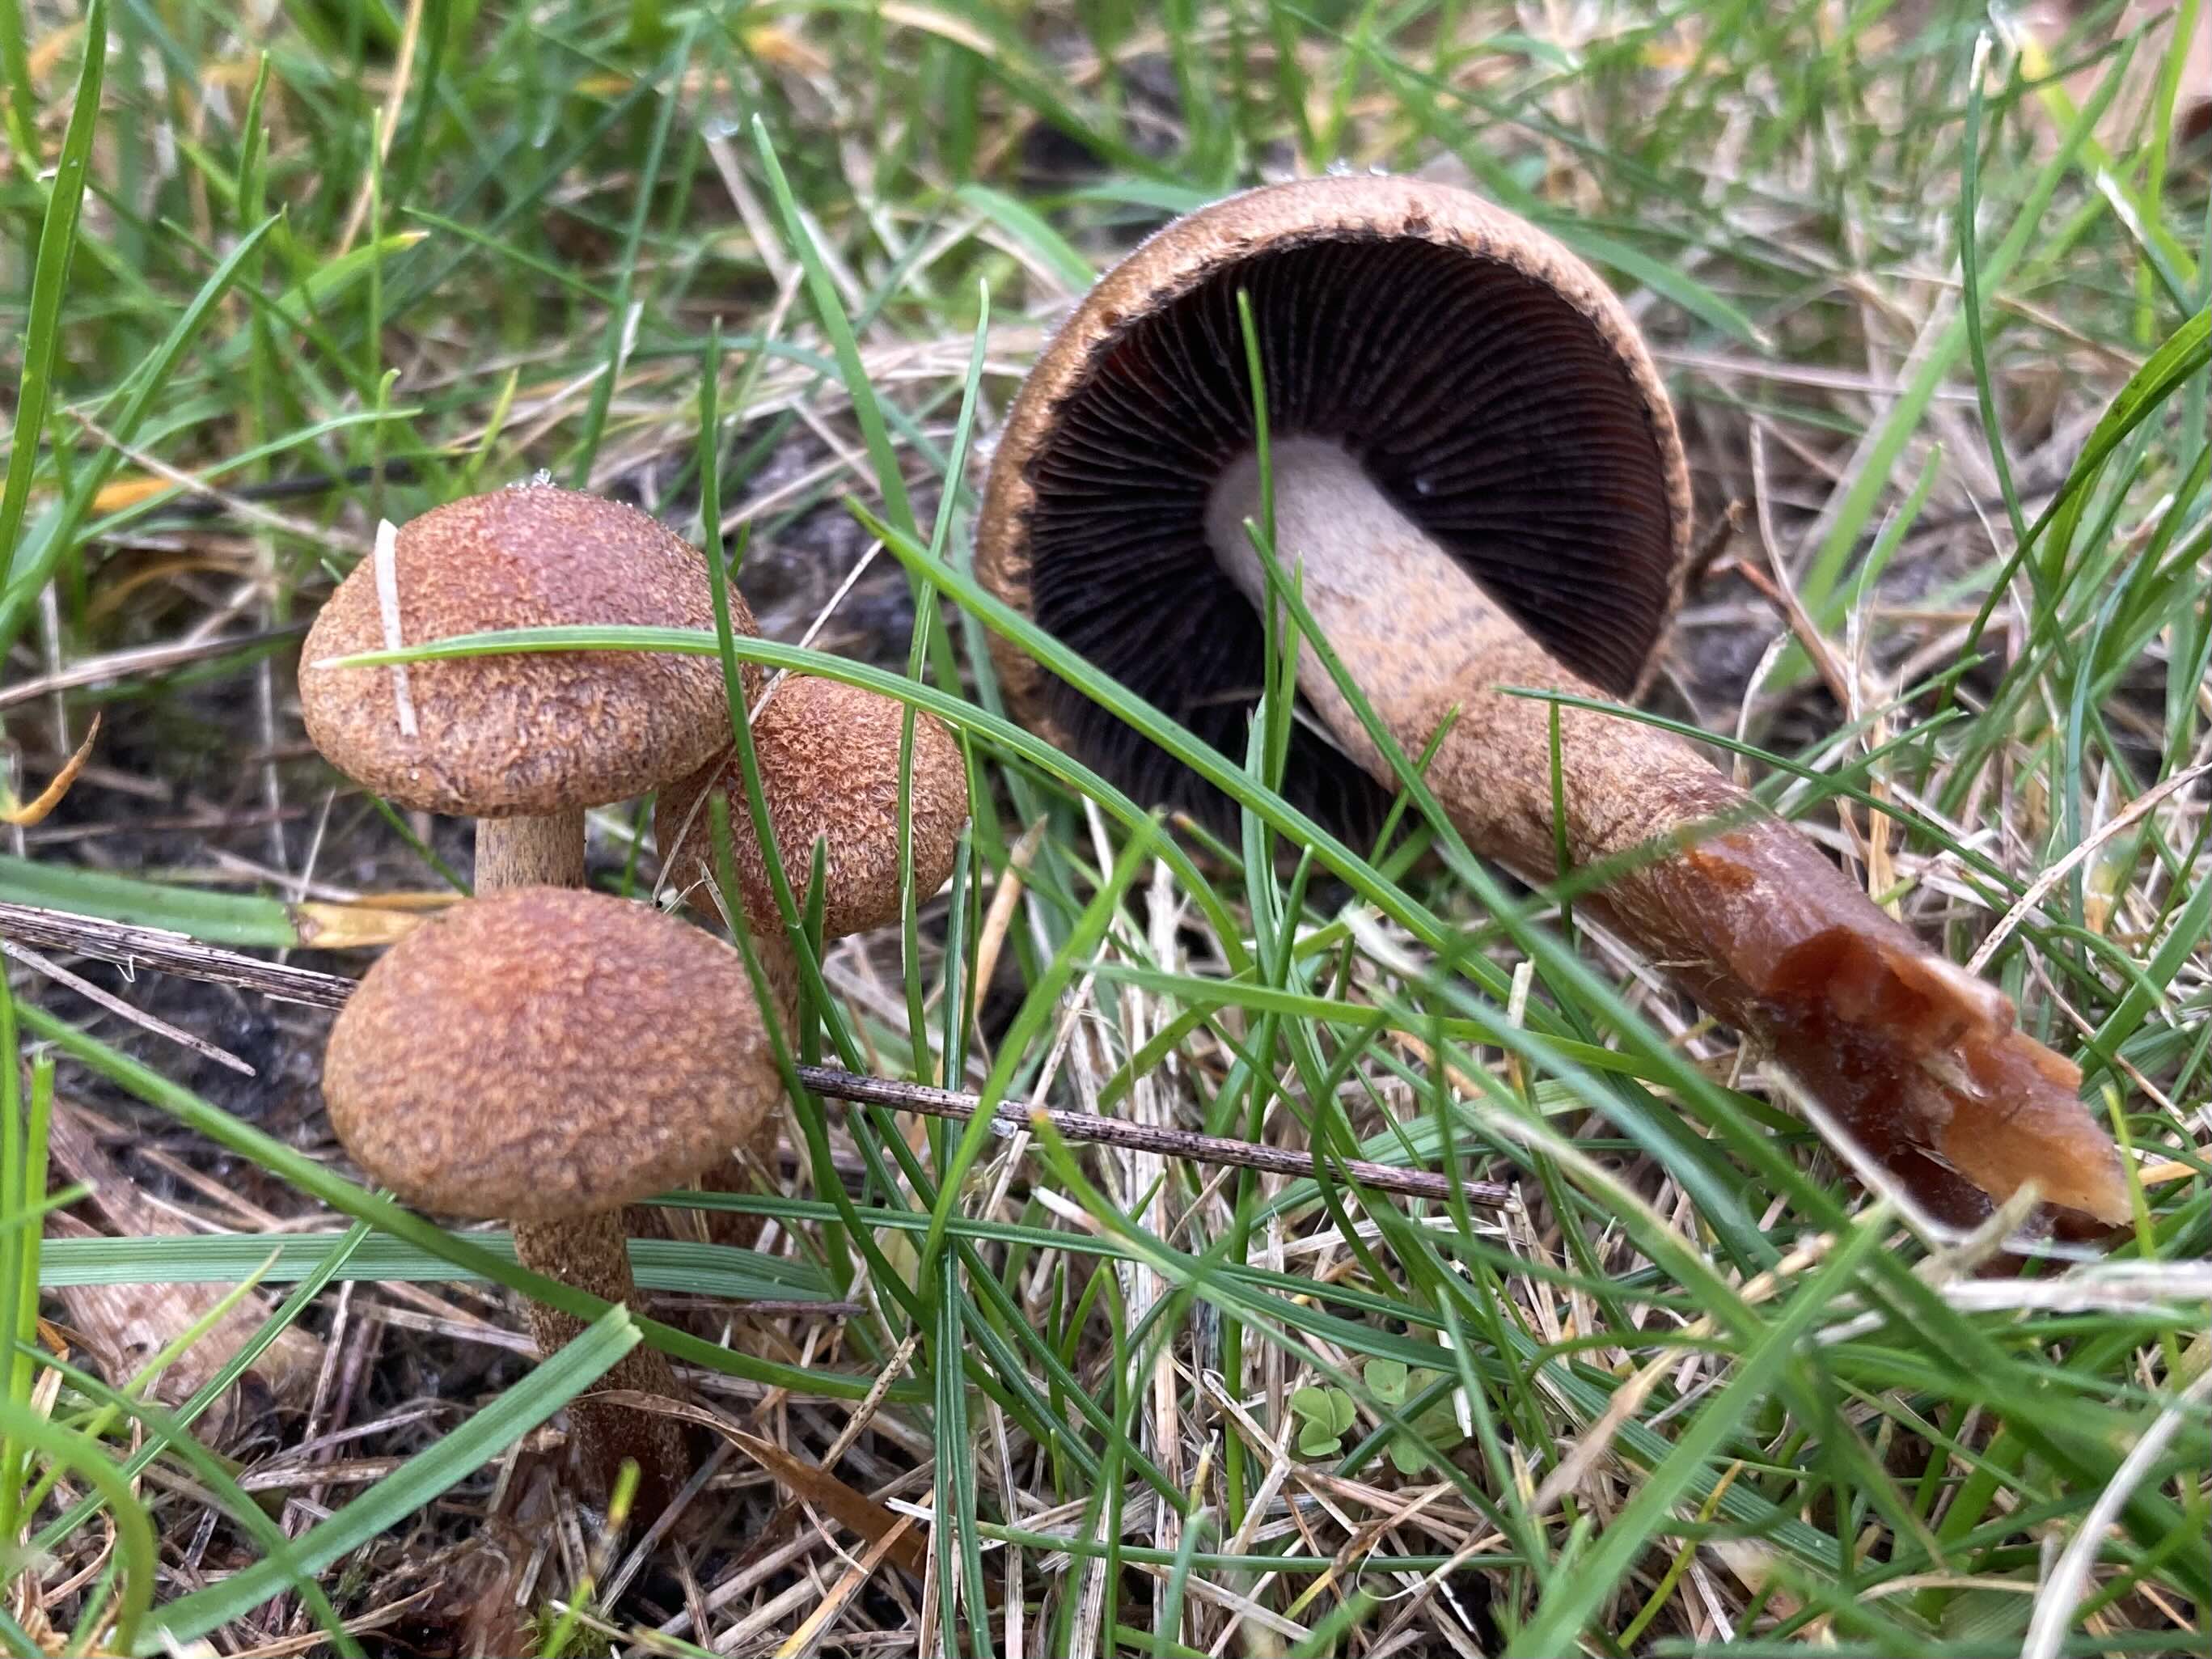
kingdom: Fungi
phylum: Basidiomycota
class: Agaricomycetes
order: Agaricales
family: Psathyrellaceae
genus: Lacrymaria
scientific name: Lacrymaria pyrotricha
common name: ildhåret mørkhat
